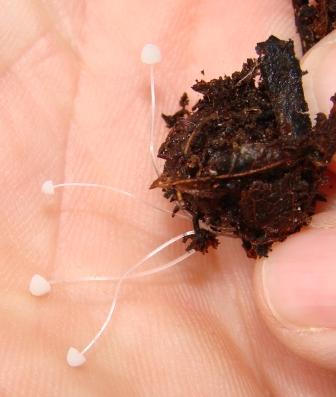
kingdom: Fungi
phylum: Basidiomycota
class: Agaricomycetes
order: Agaricales
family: Mycenaceae
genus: Mycena
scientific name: Mycena tenerrima
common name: pudret huesvamp
